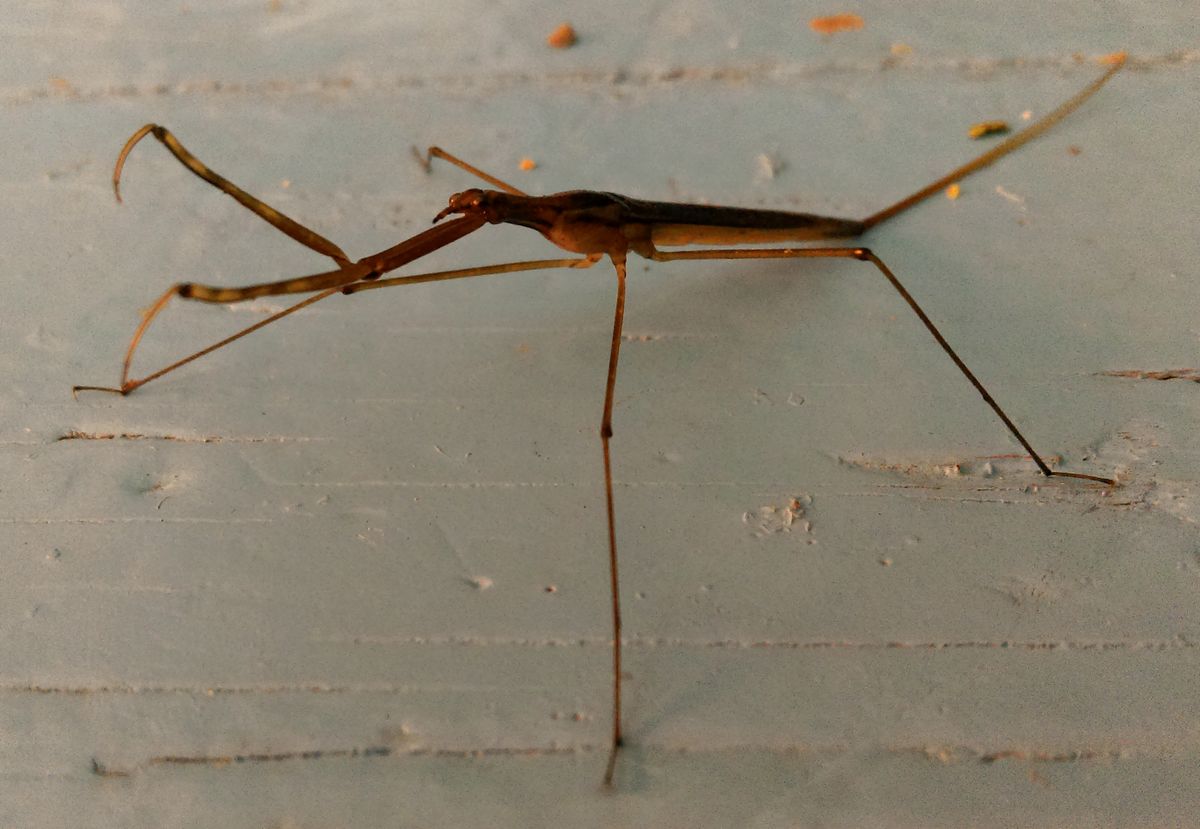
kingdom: Animalia
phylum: Arthropoda
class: Insecta
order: Hemiptera
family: Nepidae
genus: Ranatra
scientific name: Ranatra linearis
